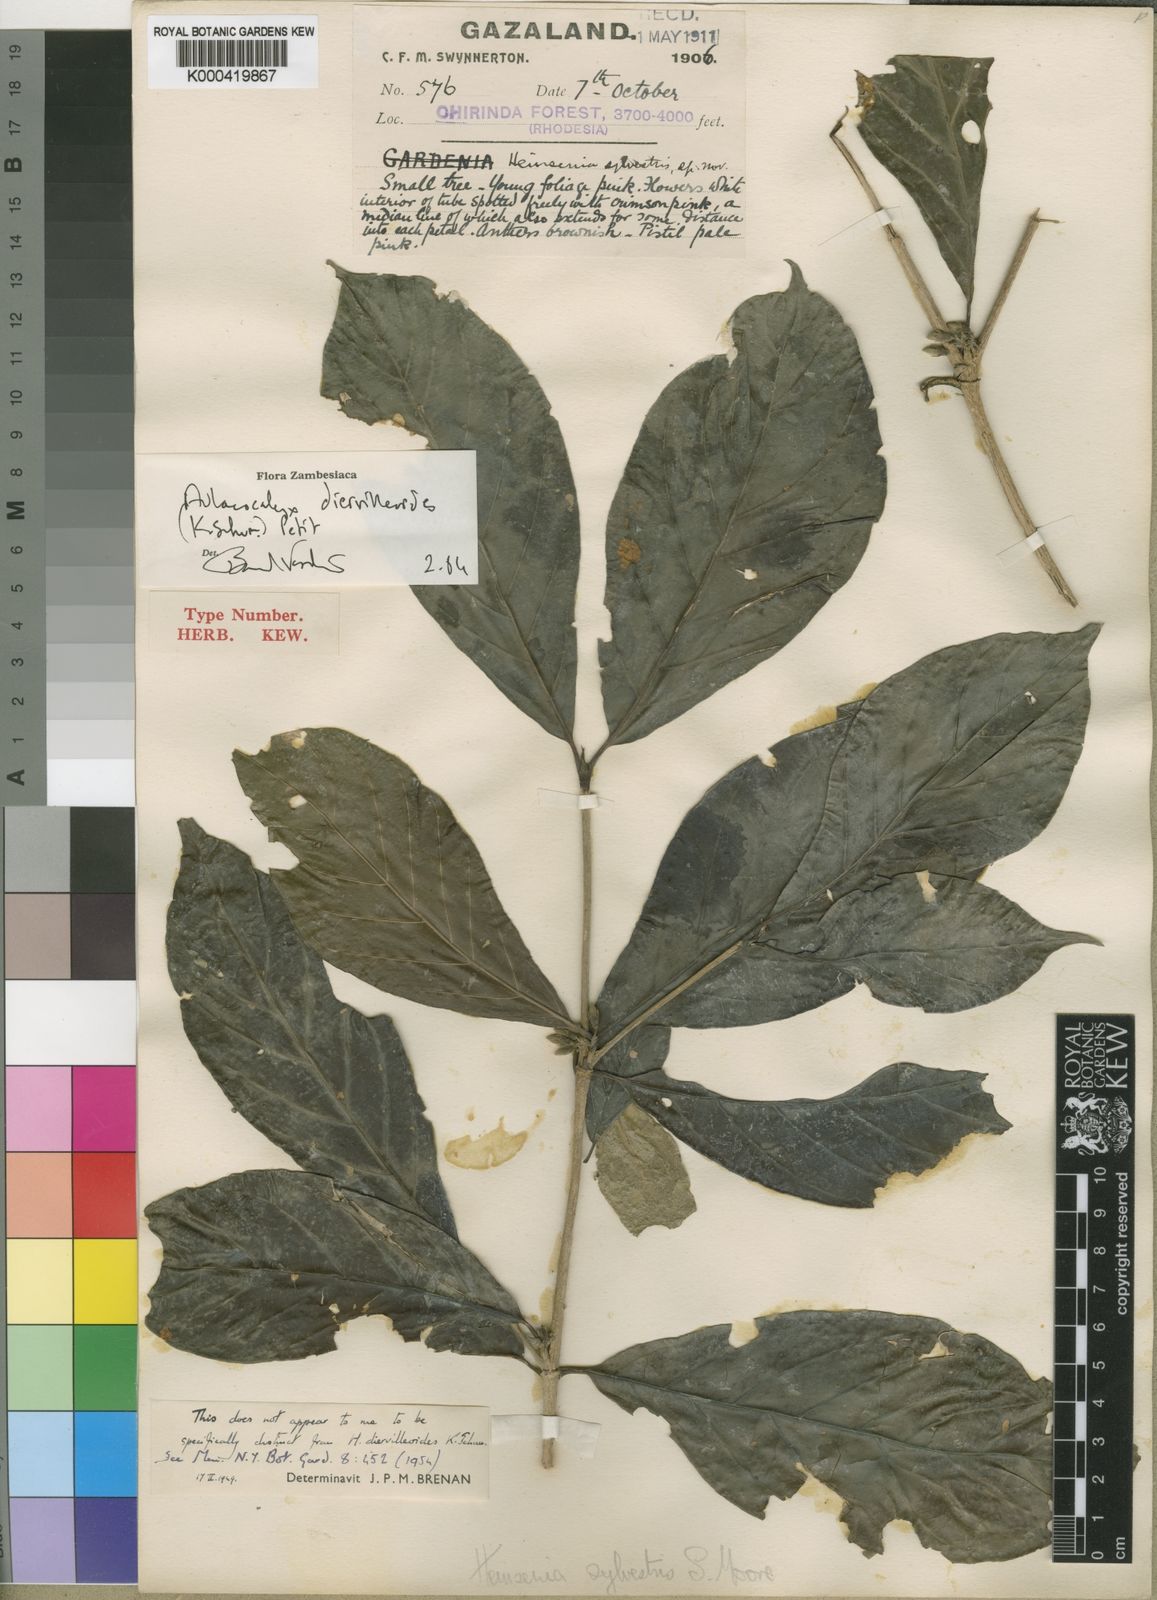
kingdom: Plantae
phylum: Tracheophyta
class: Magnoliopsida
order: Gentianales
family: Rubiaceae
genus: Heinsenia
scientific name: Heinsenia diervilleoides
